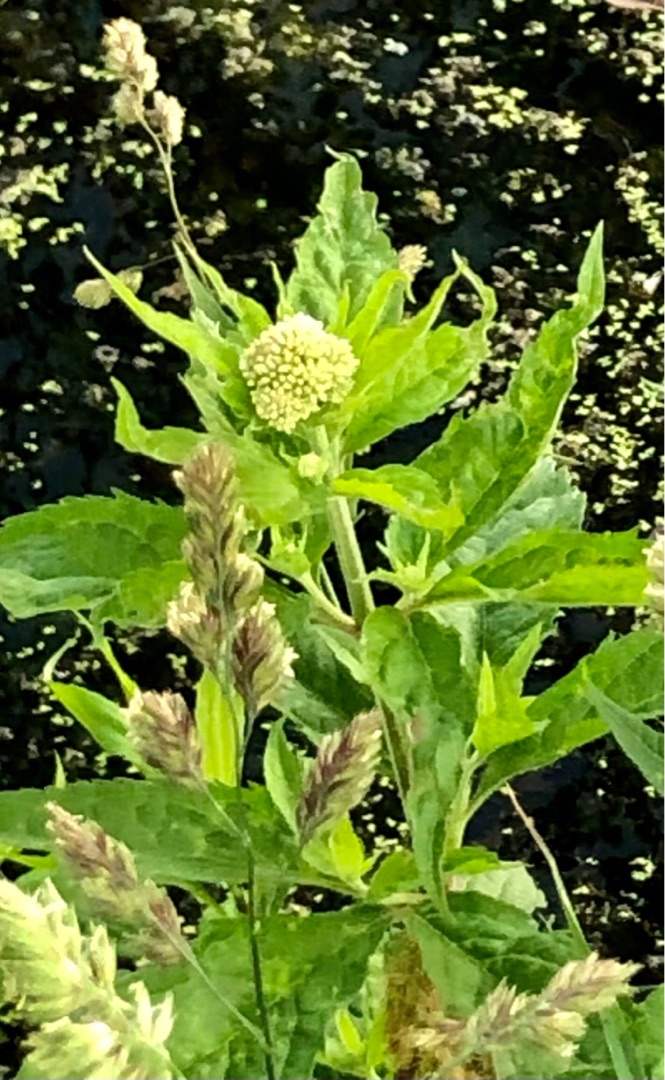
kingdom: Plantae
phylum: Tracheophyta
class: Magnoliopsida
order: Asterales
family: Asteraceae
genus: Eupatorium
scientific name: Eupatorium cannabinum
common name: Hjortetrøst
